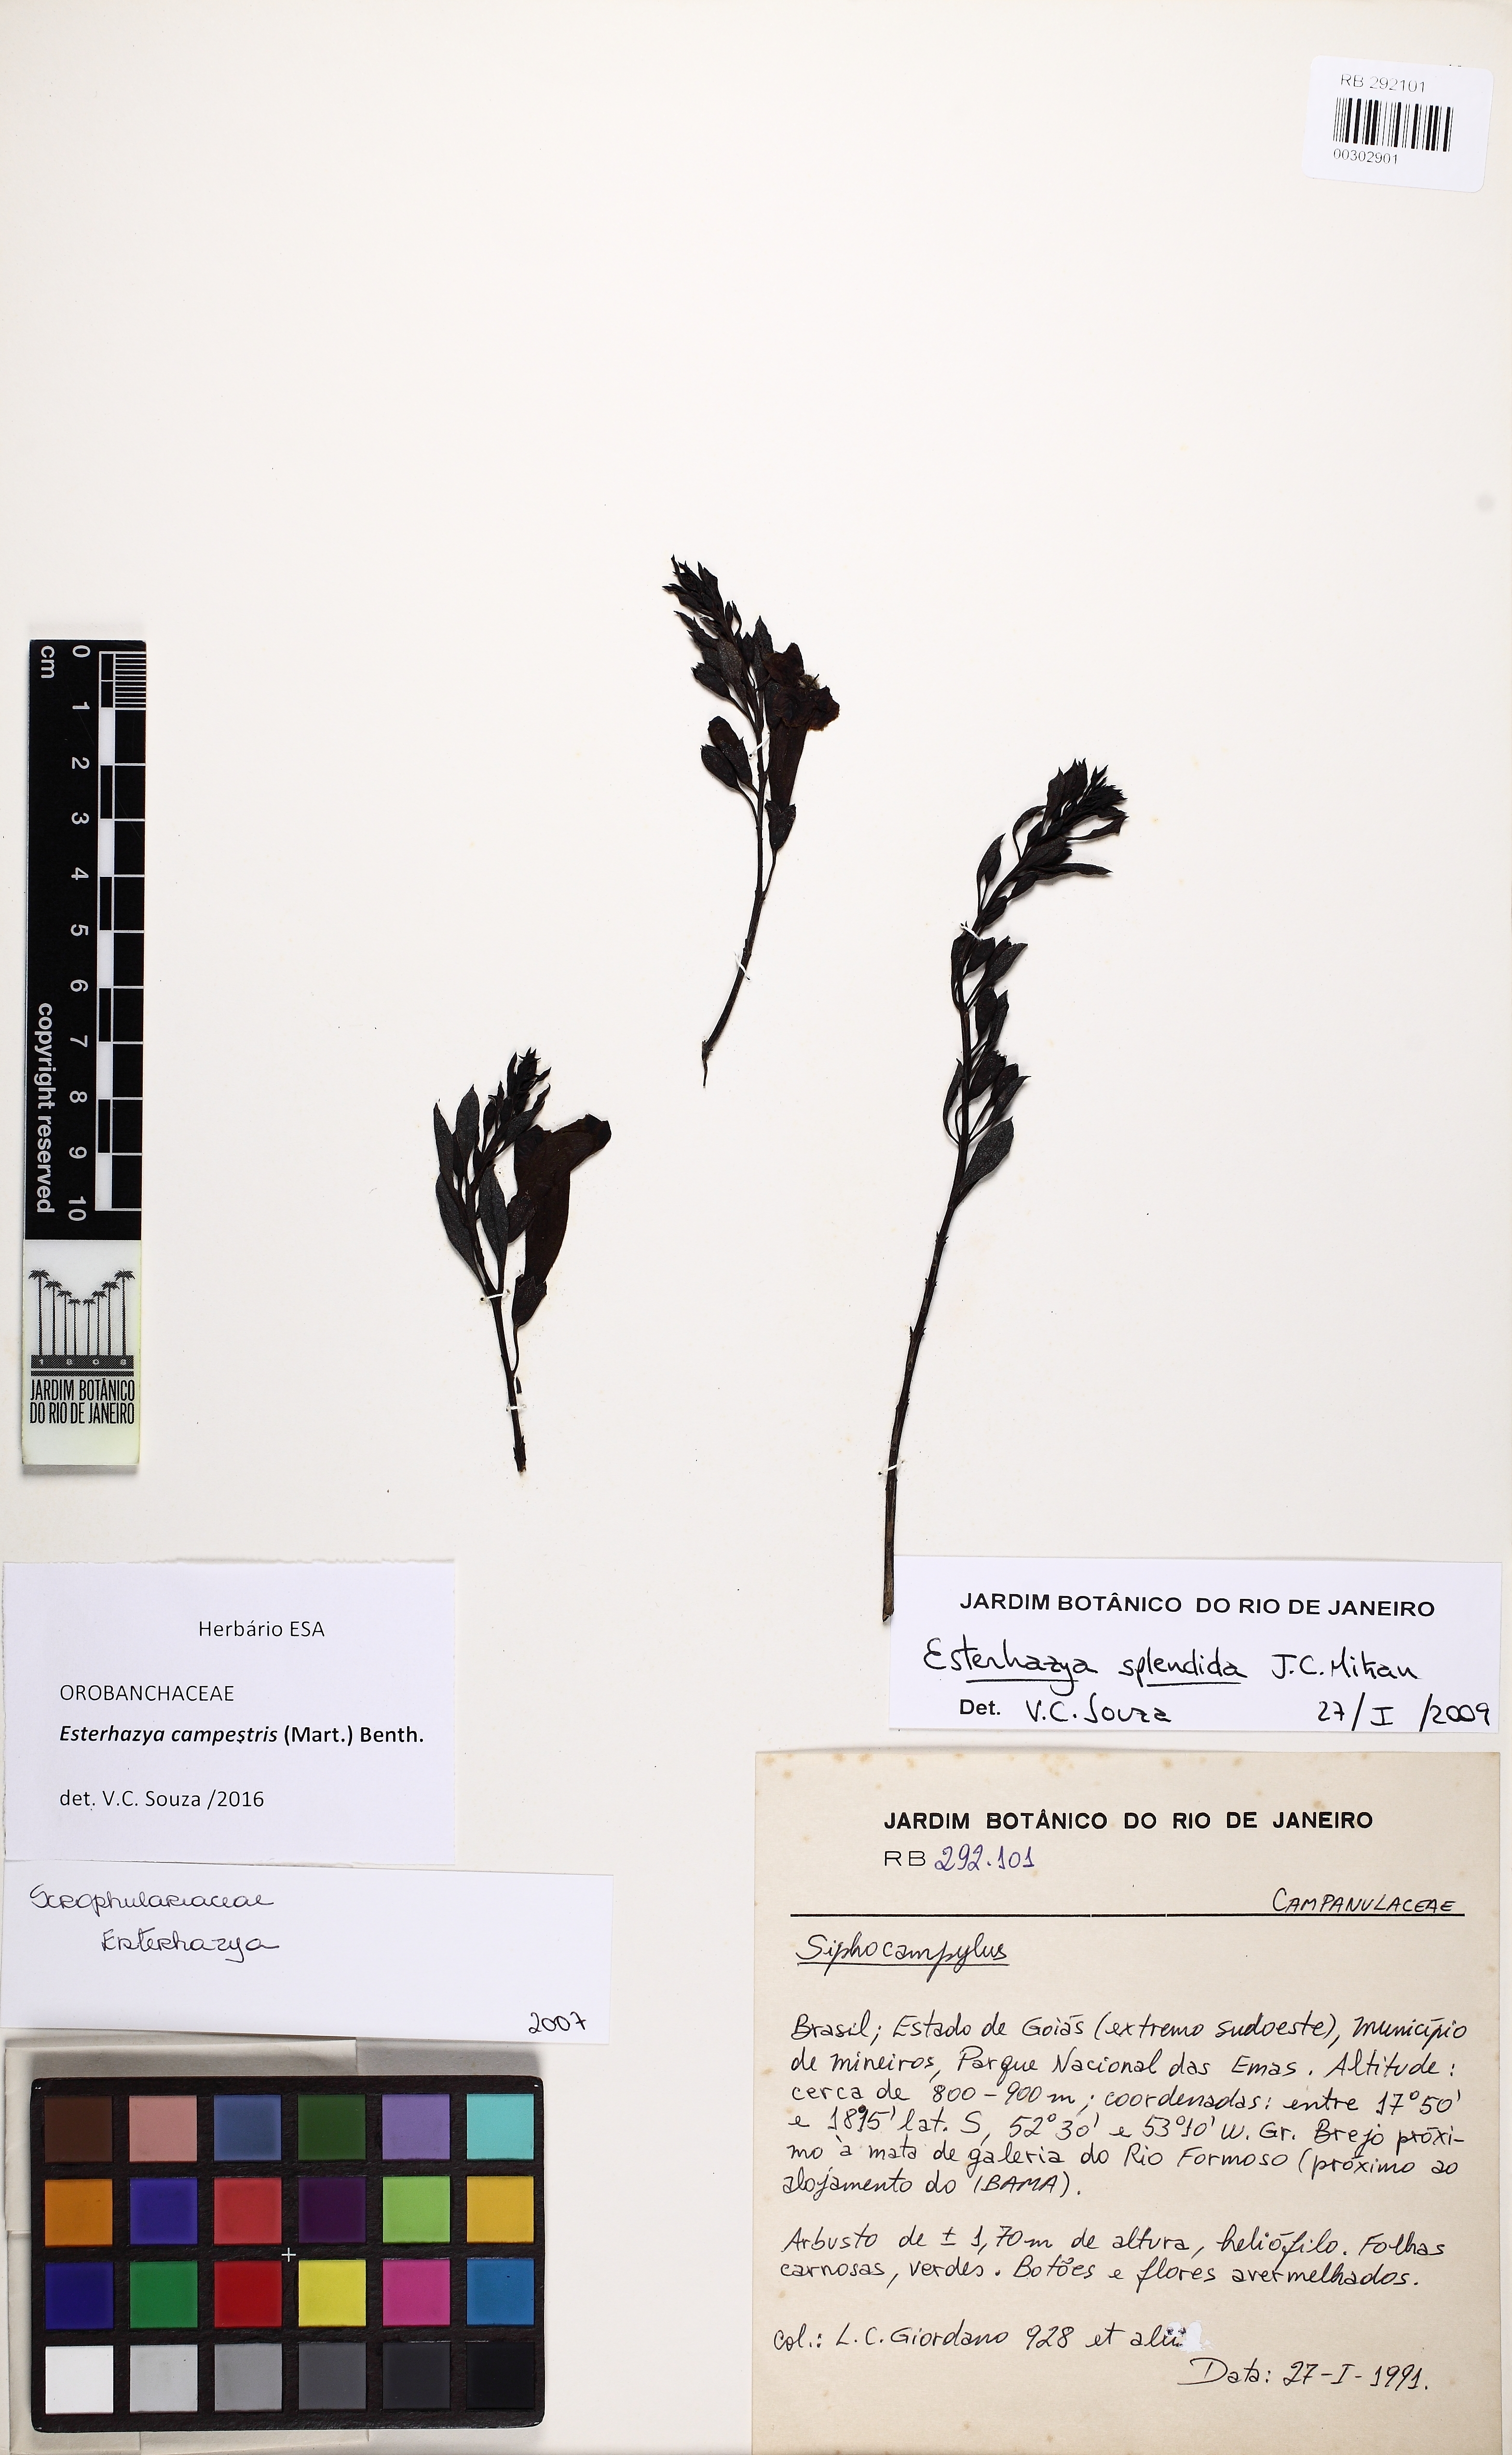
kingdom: Plantae
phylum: Tracheophyta
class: Magnoliopsida
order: Lamiales
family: Orobanchaceae
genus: Esterhazya
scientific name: Esterhazya splendida
